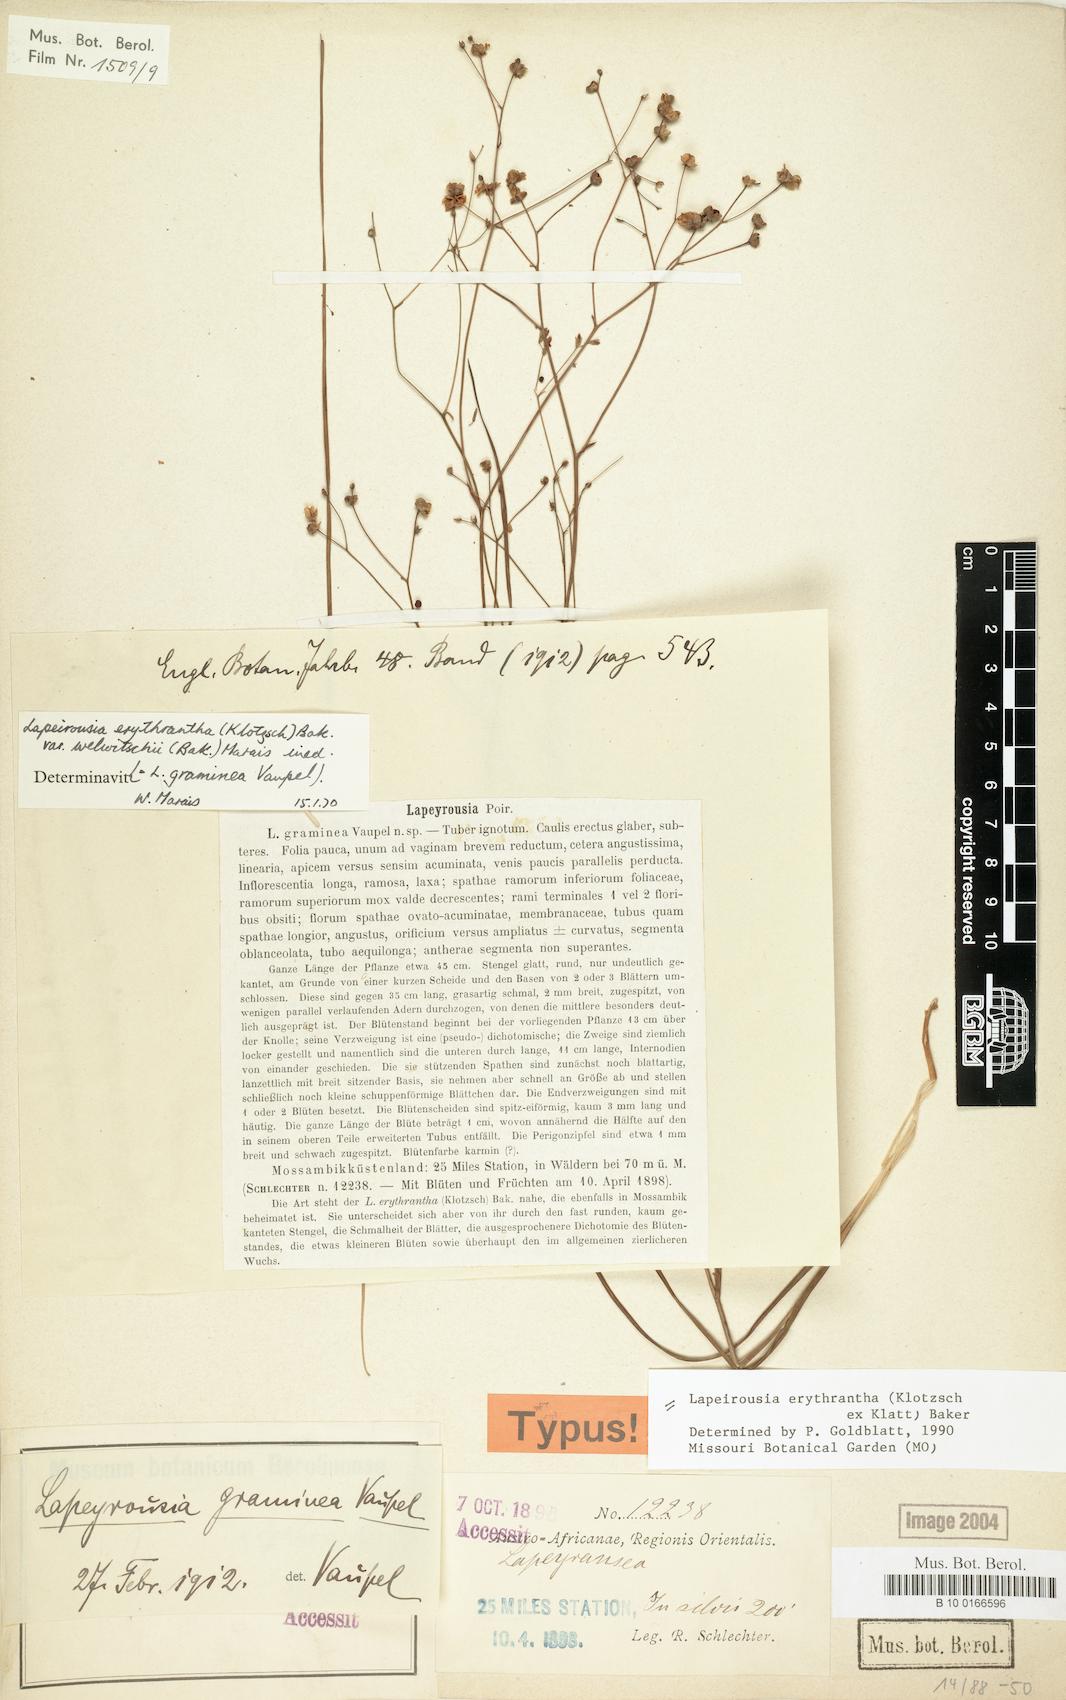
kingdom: Plantae
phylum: Tracheophyta
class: Liliopsida
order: Asparagales
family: Iridaceae
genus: Afrosolen
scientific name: Afrosolen erythranthus
